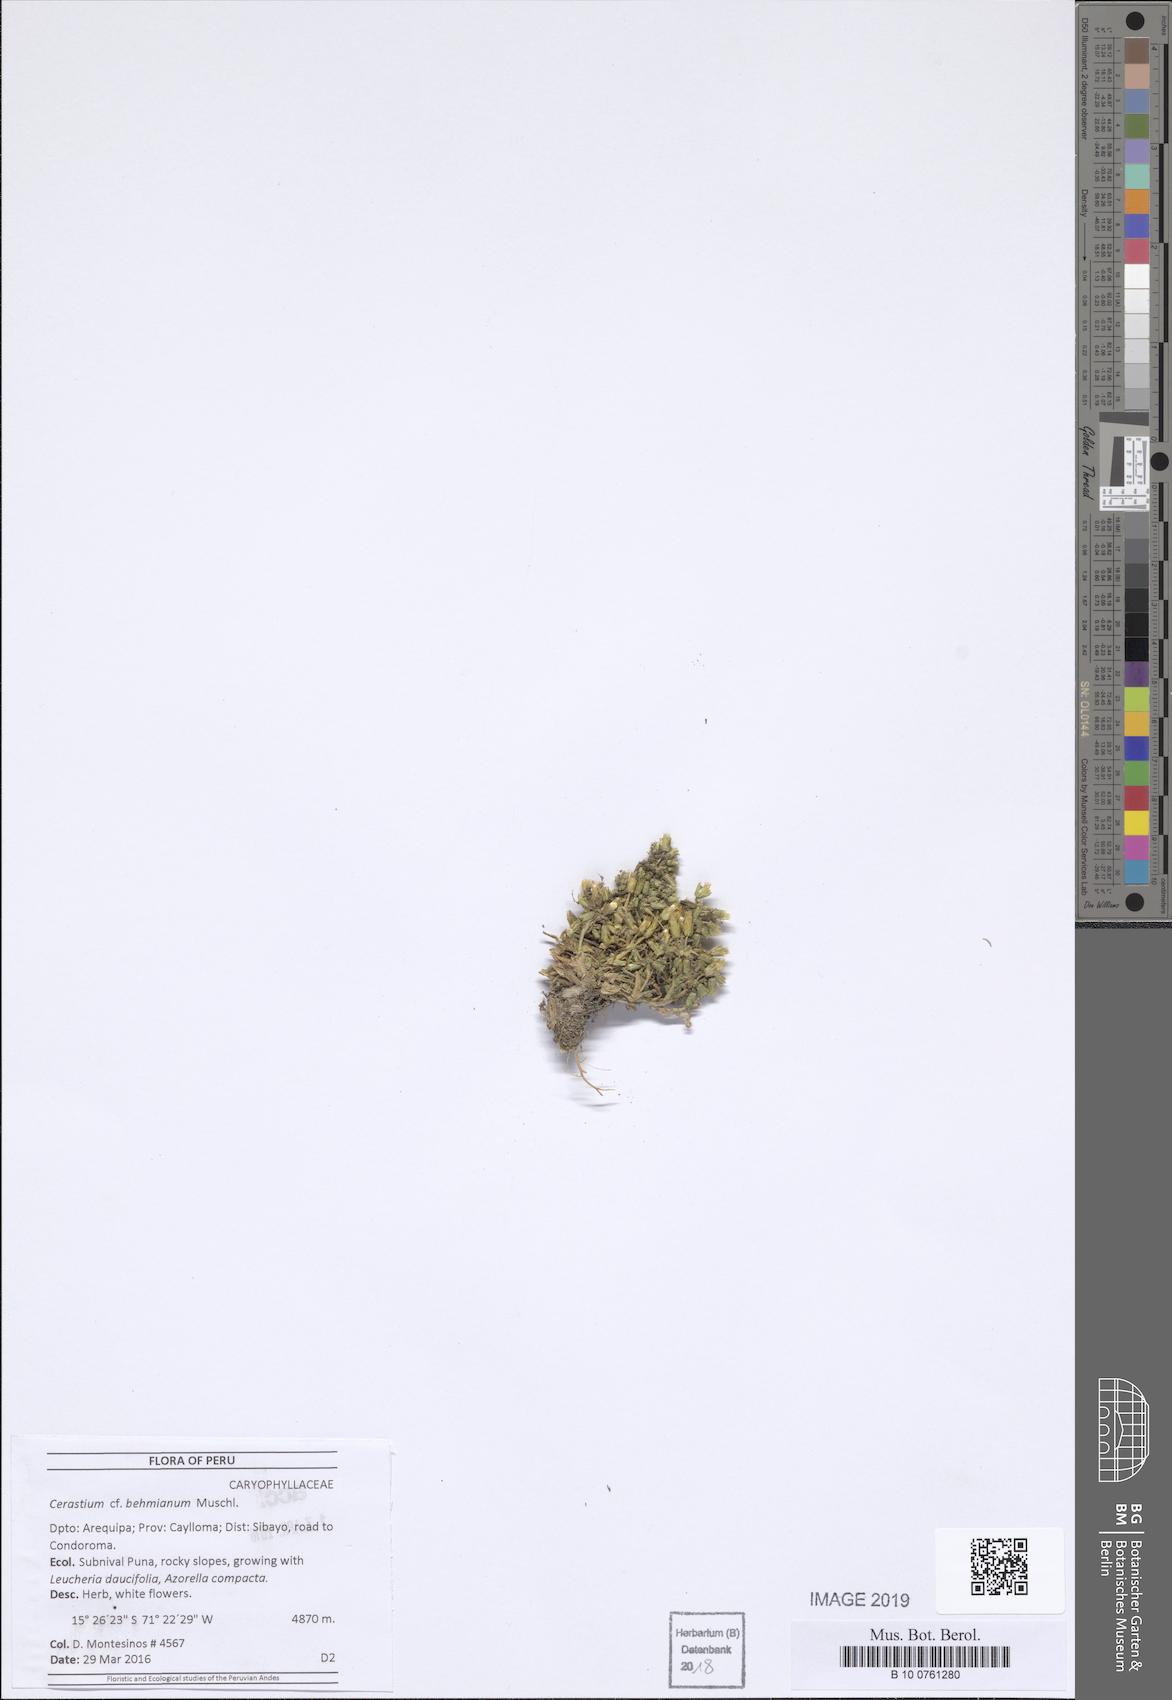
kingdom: Plantae
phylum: Tracheophyta
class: Magnoliopsida
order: Caryophyllales
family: Caryophyllaceae
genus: Cerastium
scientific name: Cerastium behmianum
